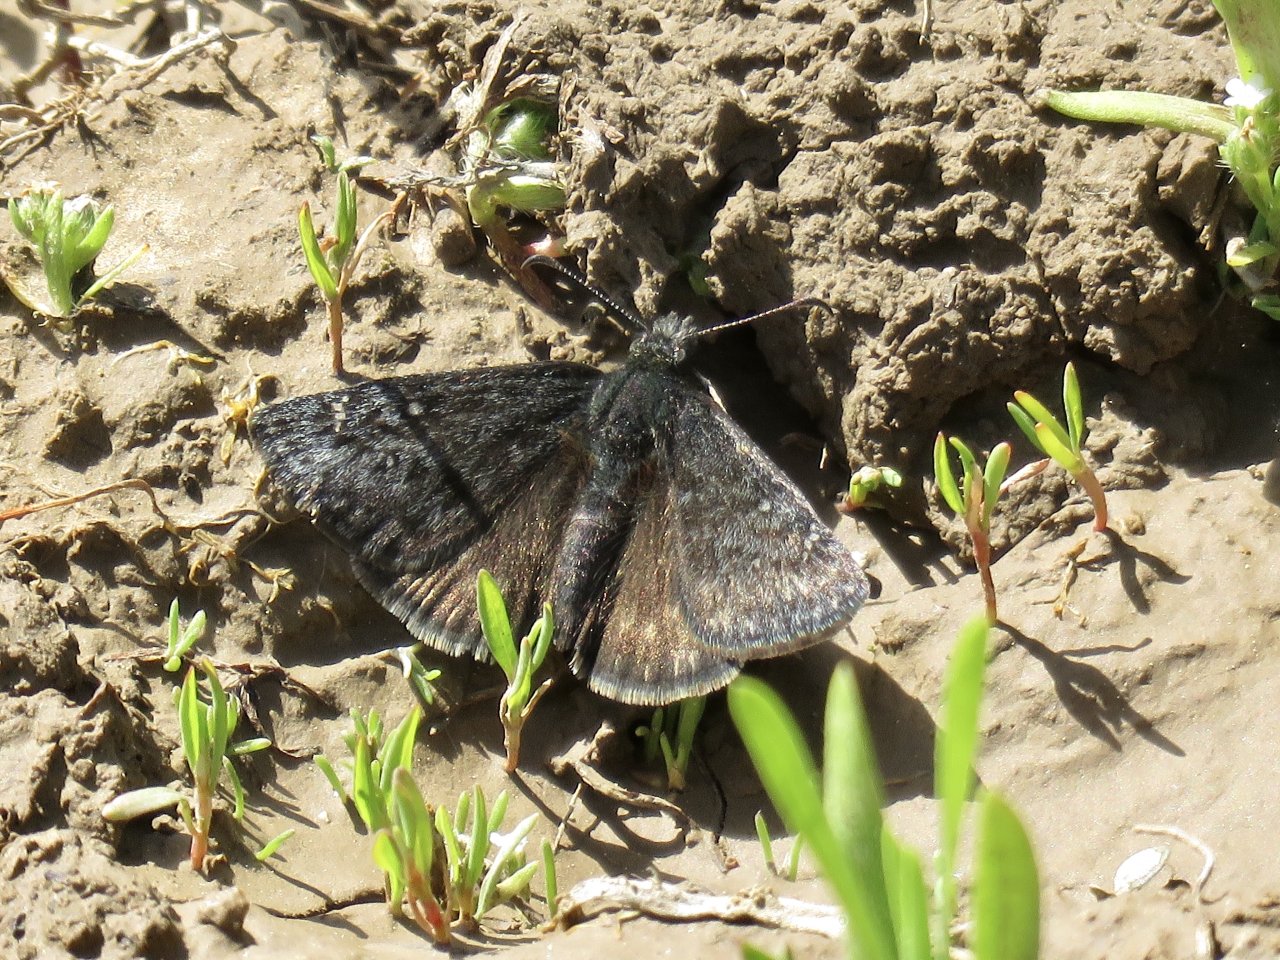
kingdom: Animalia
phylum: Arthropoda
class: Insecta
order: Lepidoptera
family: Hesperiidae
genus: Erynnis
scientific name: Erynnis brizo
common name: Sleepy Duskywing
